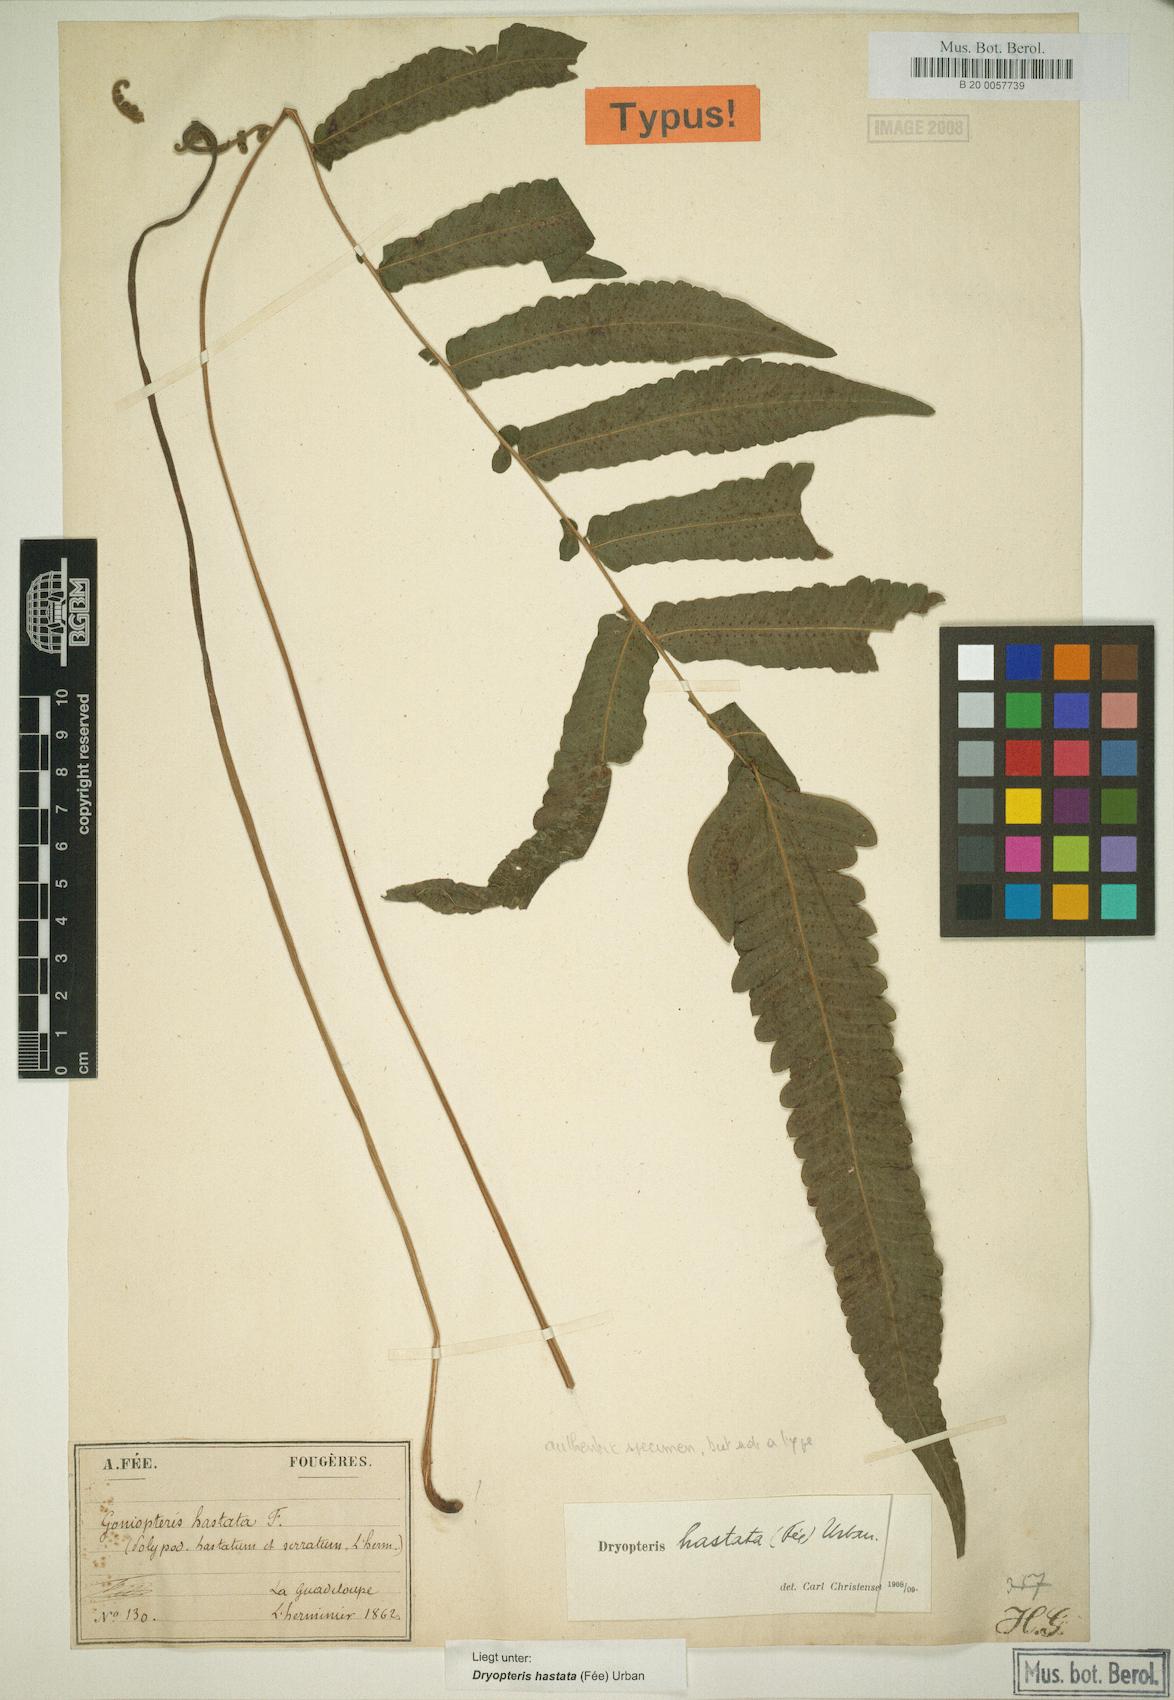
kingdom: Plantae
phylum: Tracheophyta
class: Polypodiopsida
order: Polypodiales
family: Thelypteridaceae
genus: Goniopteris
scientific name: Goniopteris hastata
